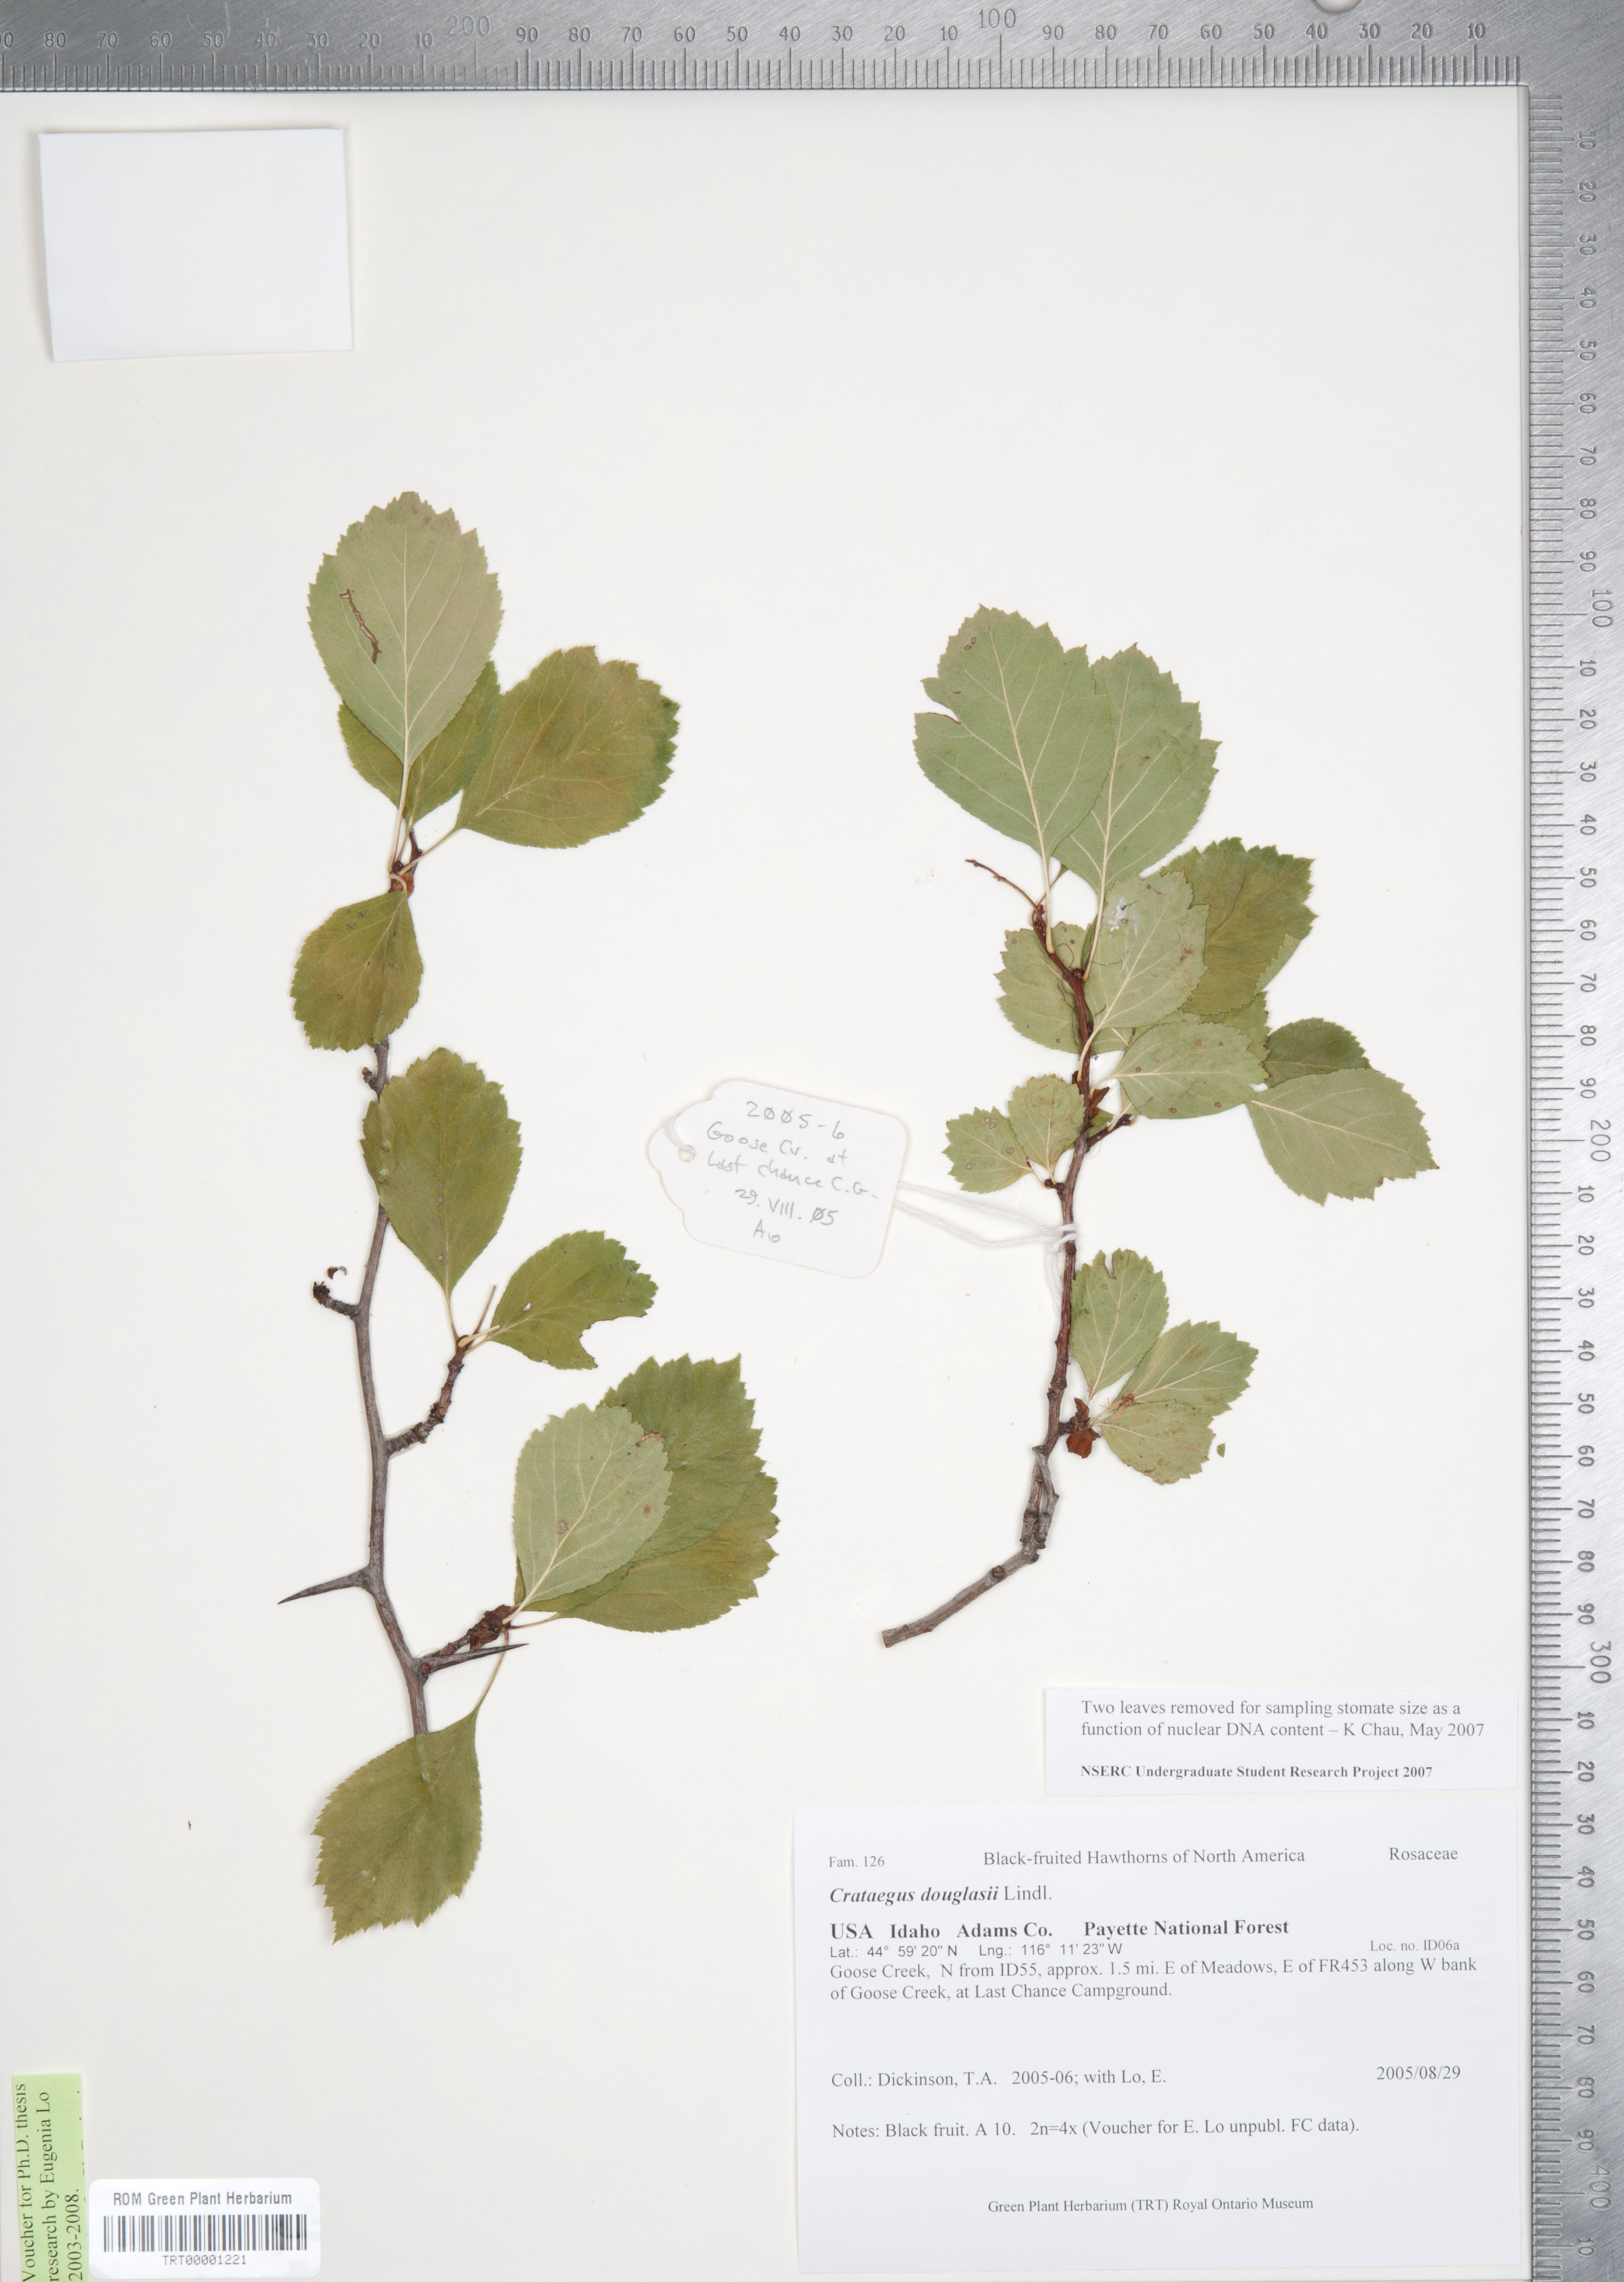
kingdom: Plantae
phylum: Tracheophyta
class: Magnoliopsida
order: Rosales
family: Rosaceae
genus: Crataegus
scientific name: Crataegus douglasii
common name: Black hawthorn
